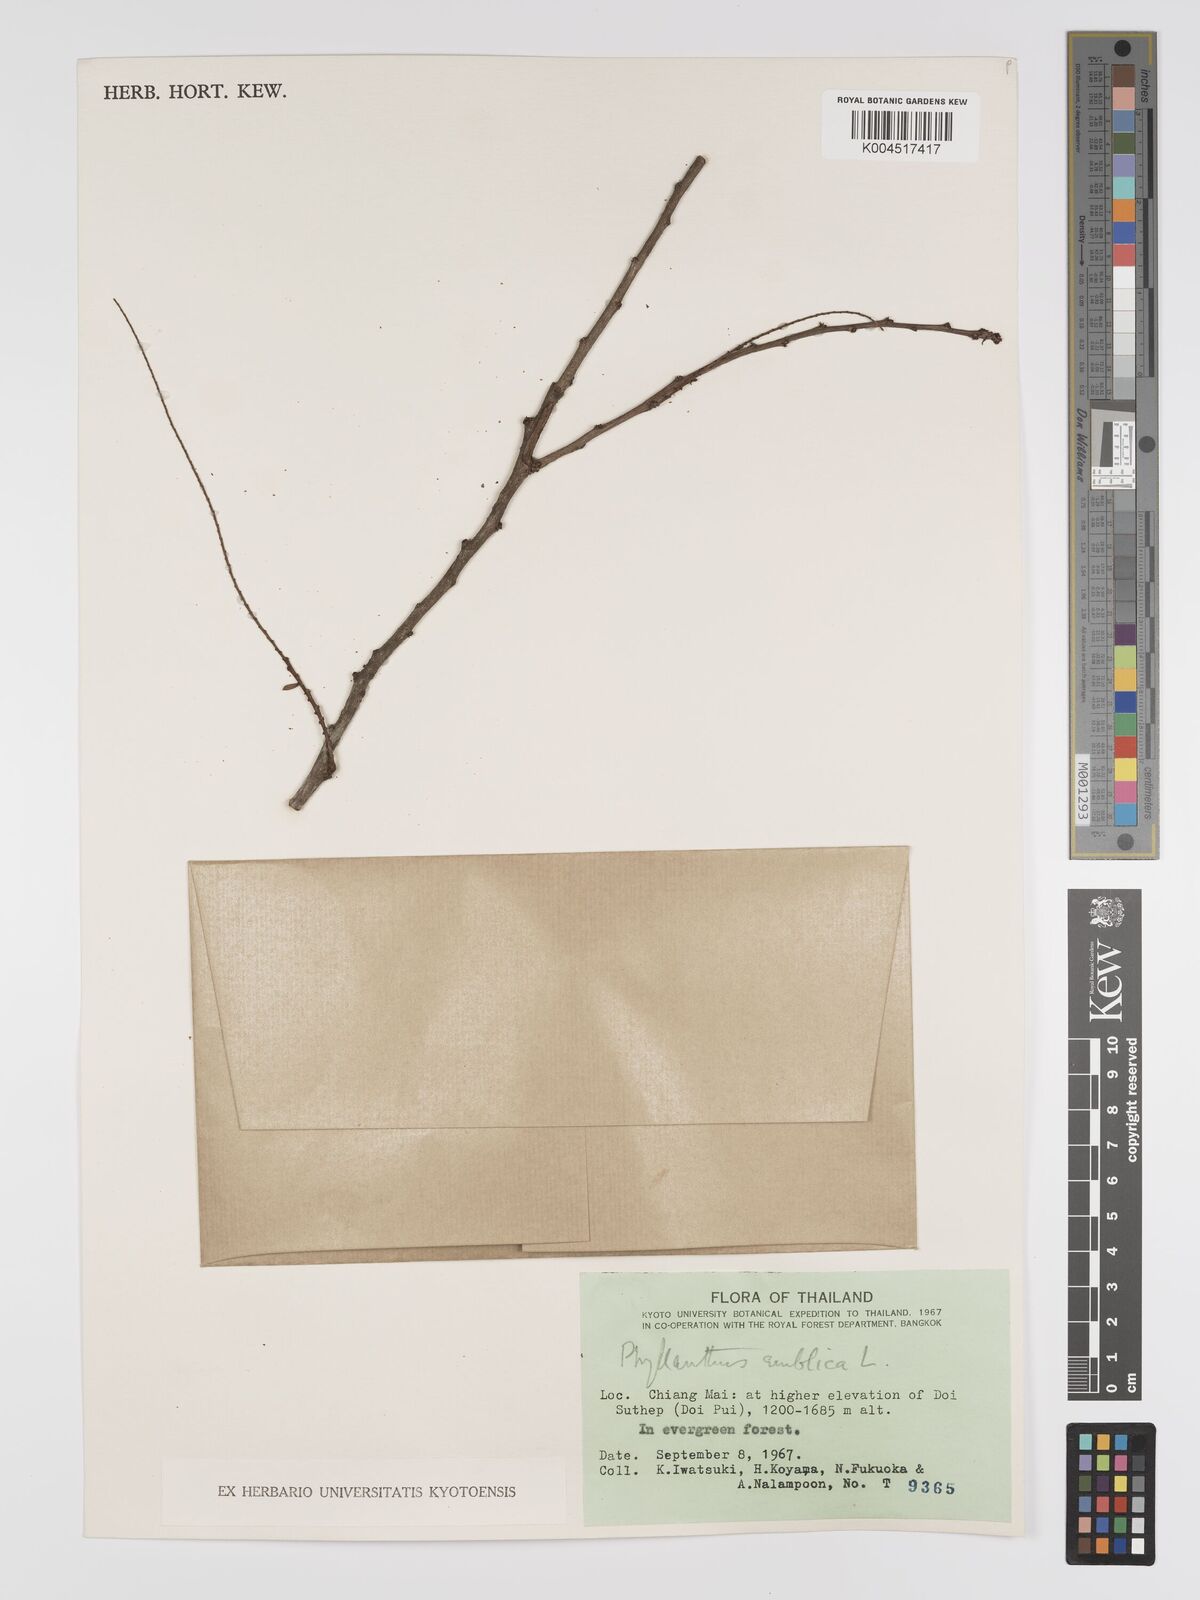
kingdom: Plantae
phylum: Tracheophyta
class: Magnoliopsida
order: Malpighiales
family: Phyllanthaceae
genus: Phyllanthus
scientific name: Phyllanthus emblica
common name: Indian gooseberry
